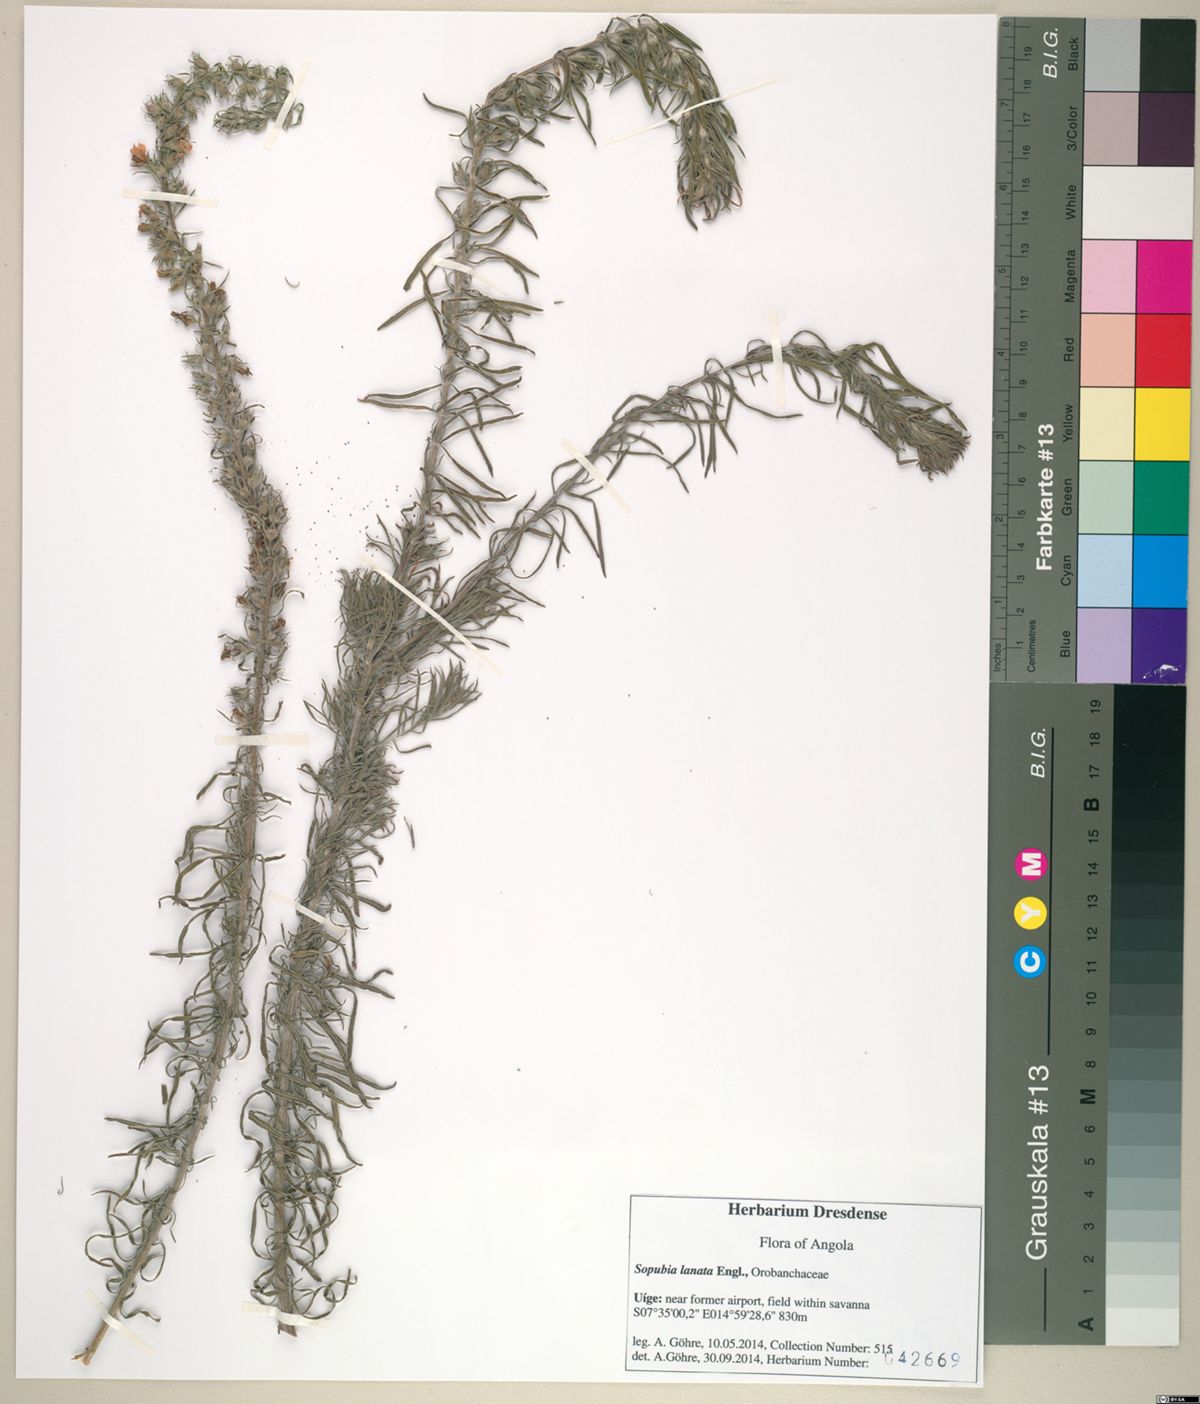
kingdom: Plantae
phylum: Tracheophyta
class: Magnoliopsida
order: Lamiales
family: Orobanchaceae
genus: Sopubia
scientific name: Sopubia lanata
